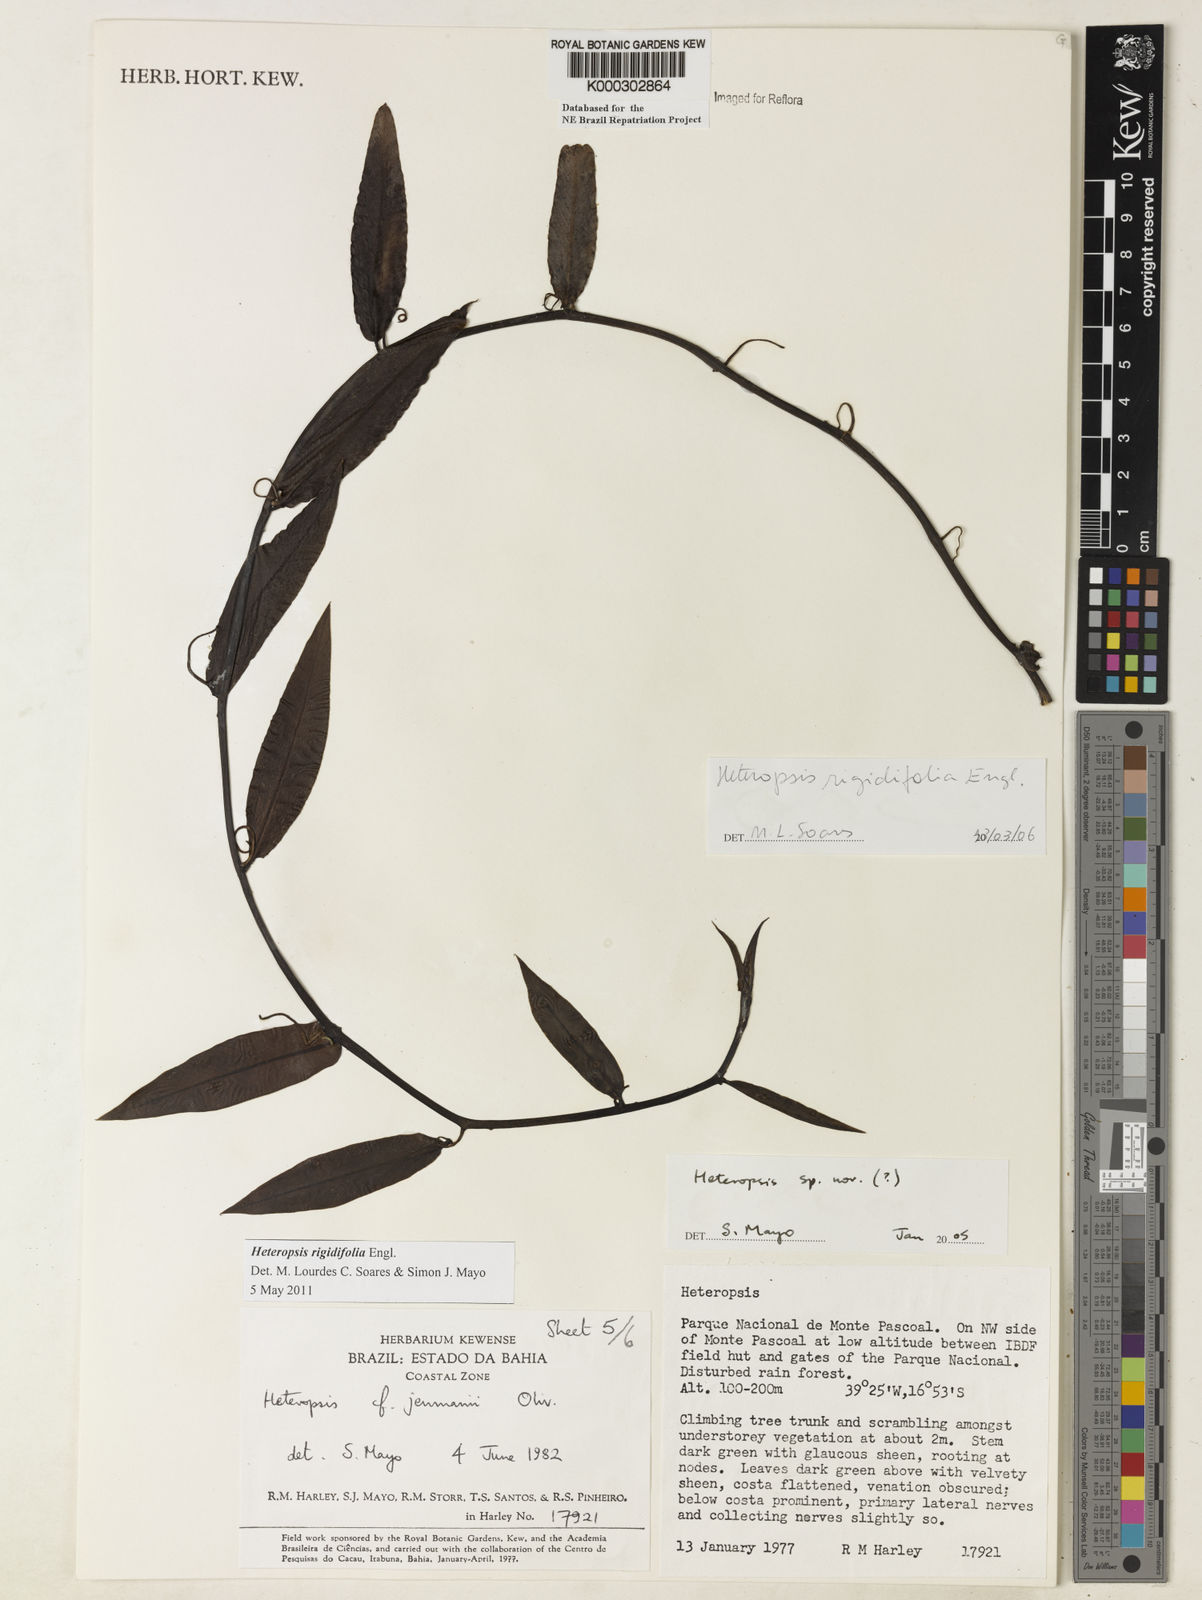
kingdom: Plantae
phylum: Tracheophyta
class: Liliopsida
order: Alismatales
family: Araceae
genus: Heteropsis
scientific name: Heteropsis
